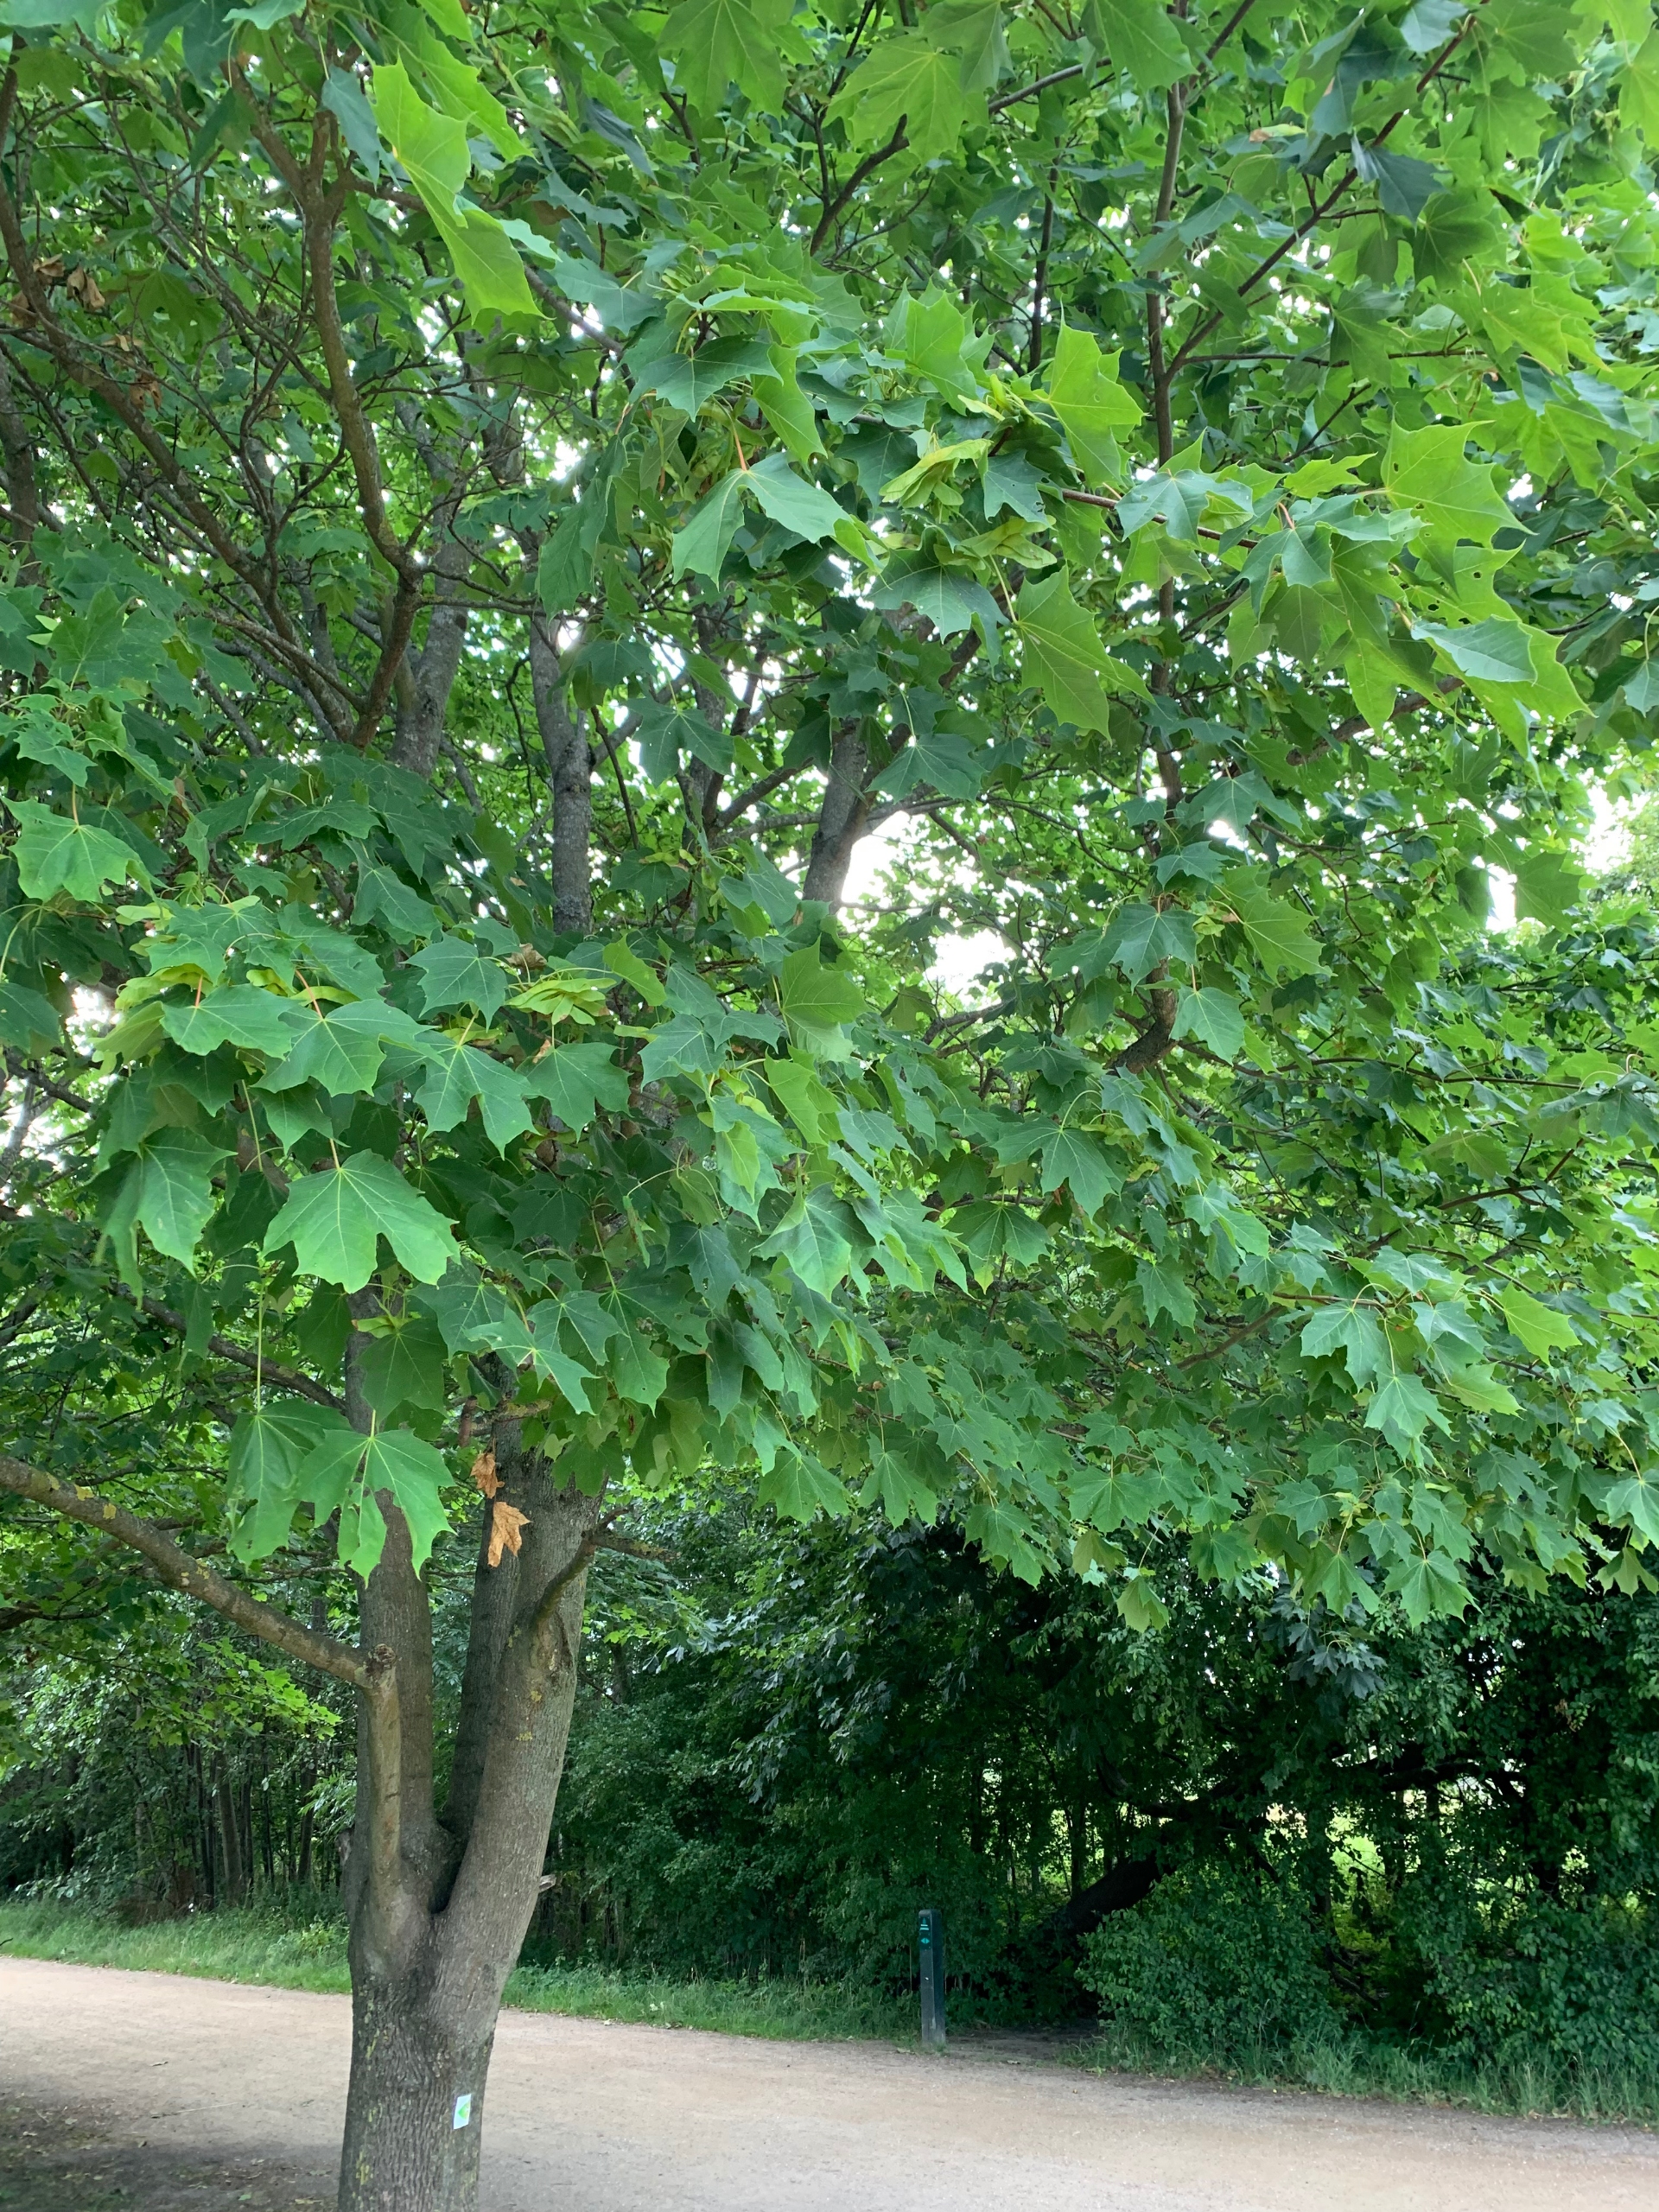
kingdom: Plantae
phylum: Tracheophyta
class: Magnoliopsida
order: Sapindales
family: Sapindaceae
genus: Acer
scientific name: Acer platanoides
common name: Spids-løn
